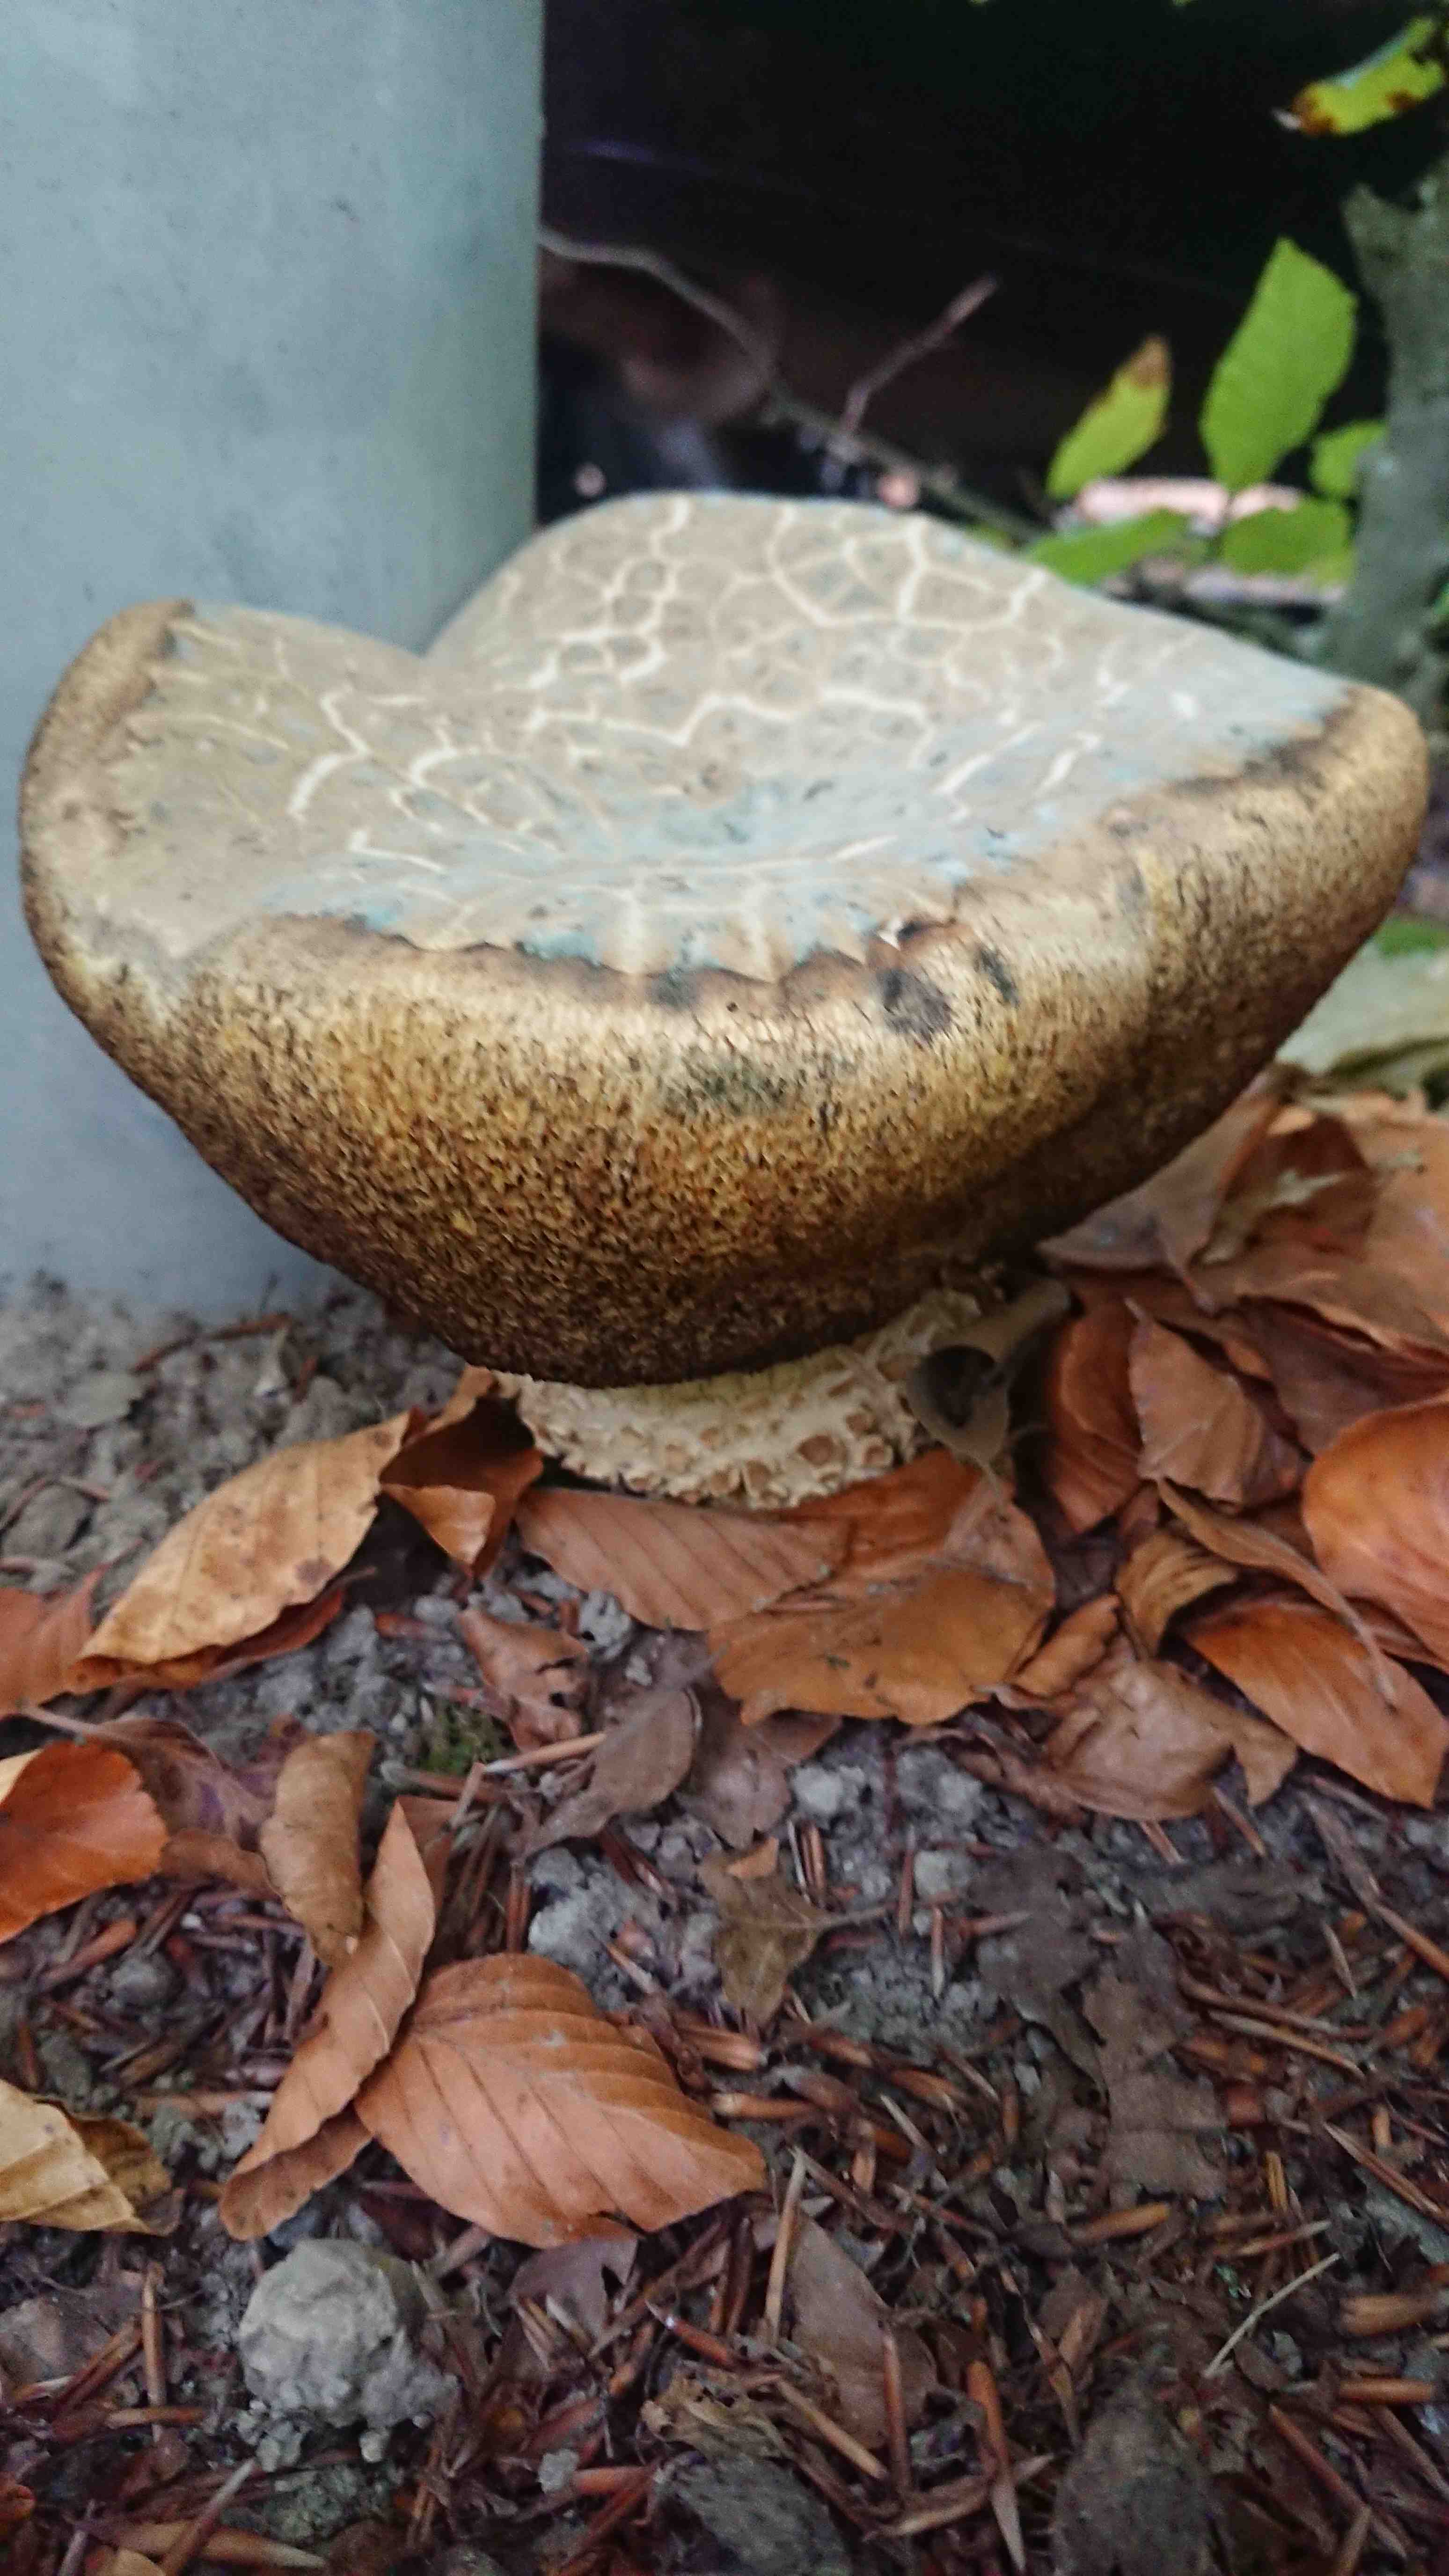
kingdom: Fungi
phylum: Basidiomycota
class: Agaricomycetes
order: Boletales
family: Boletaceae
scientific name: Boletaceae
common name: rørhatfamilien
